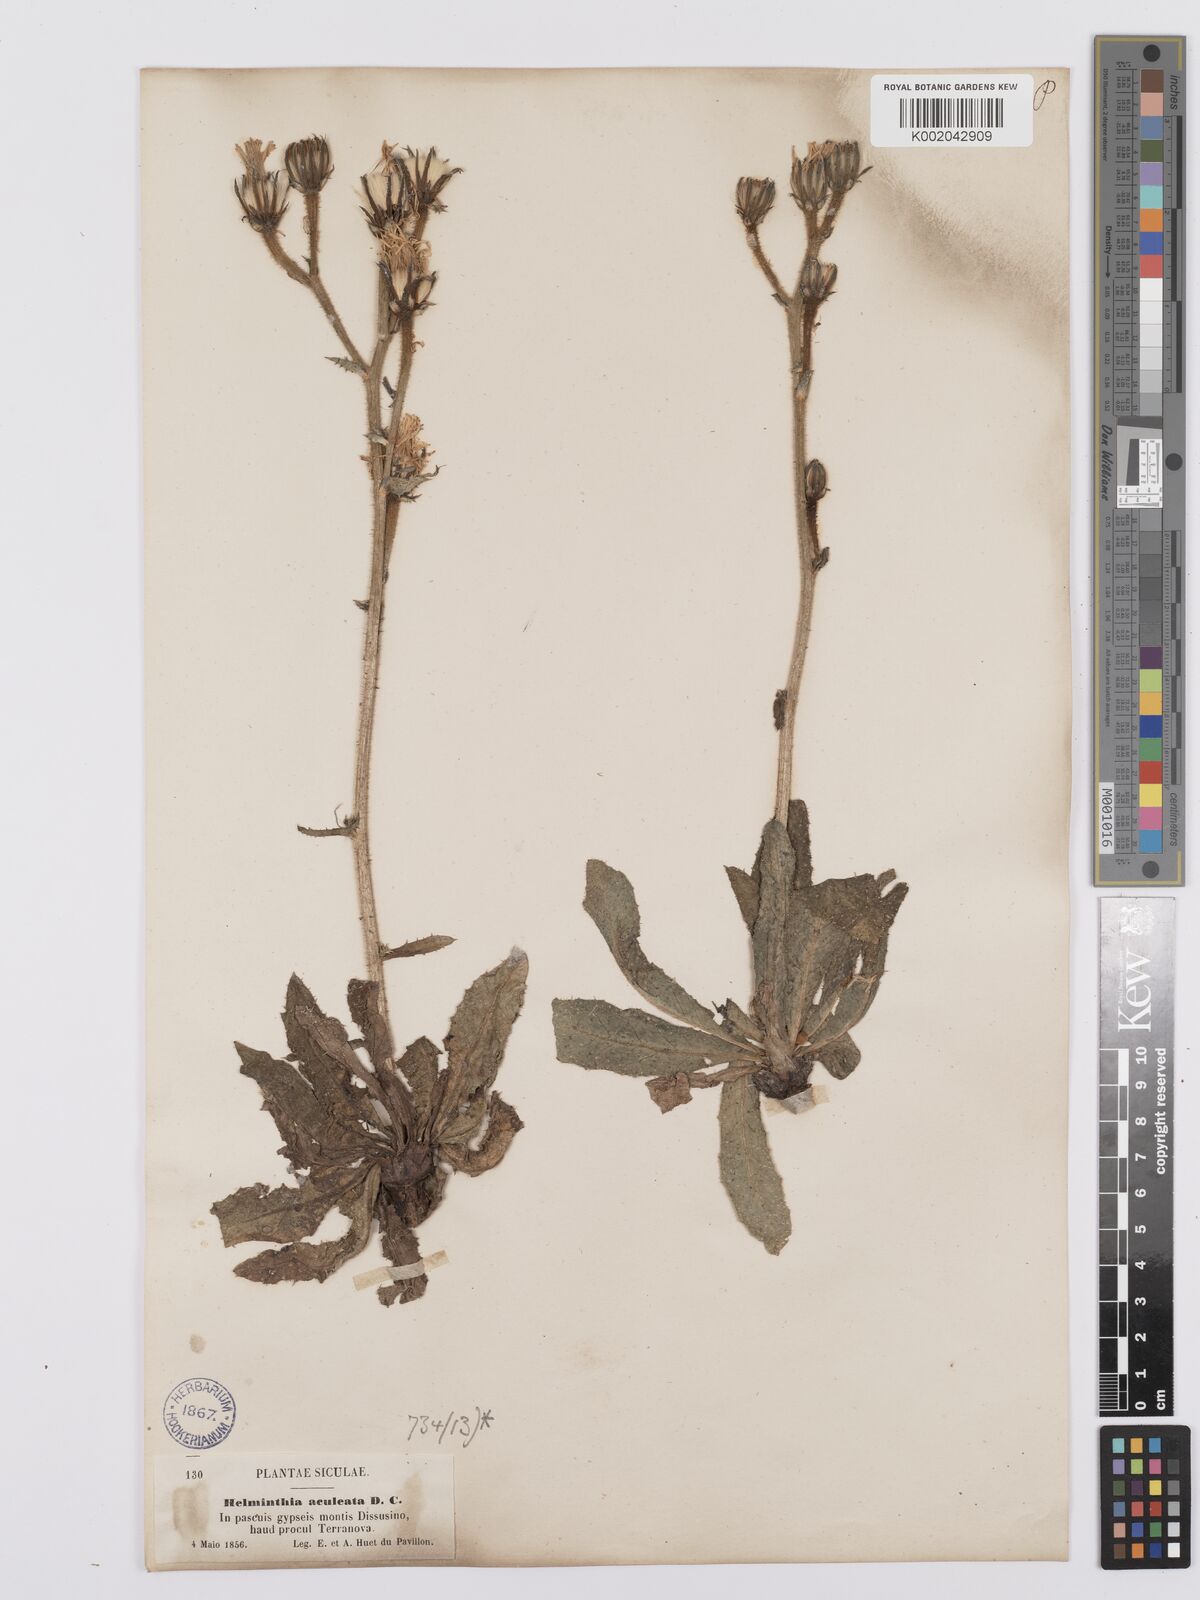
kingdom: Plantae
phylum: Tracheophyta
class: Magnoliopsida
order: Asterales
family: Asteraceae
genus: Helminthotheca
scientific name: Helminthotheca aculeata
